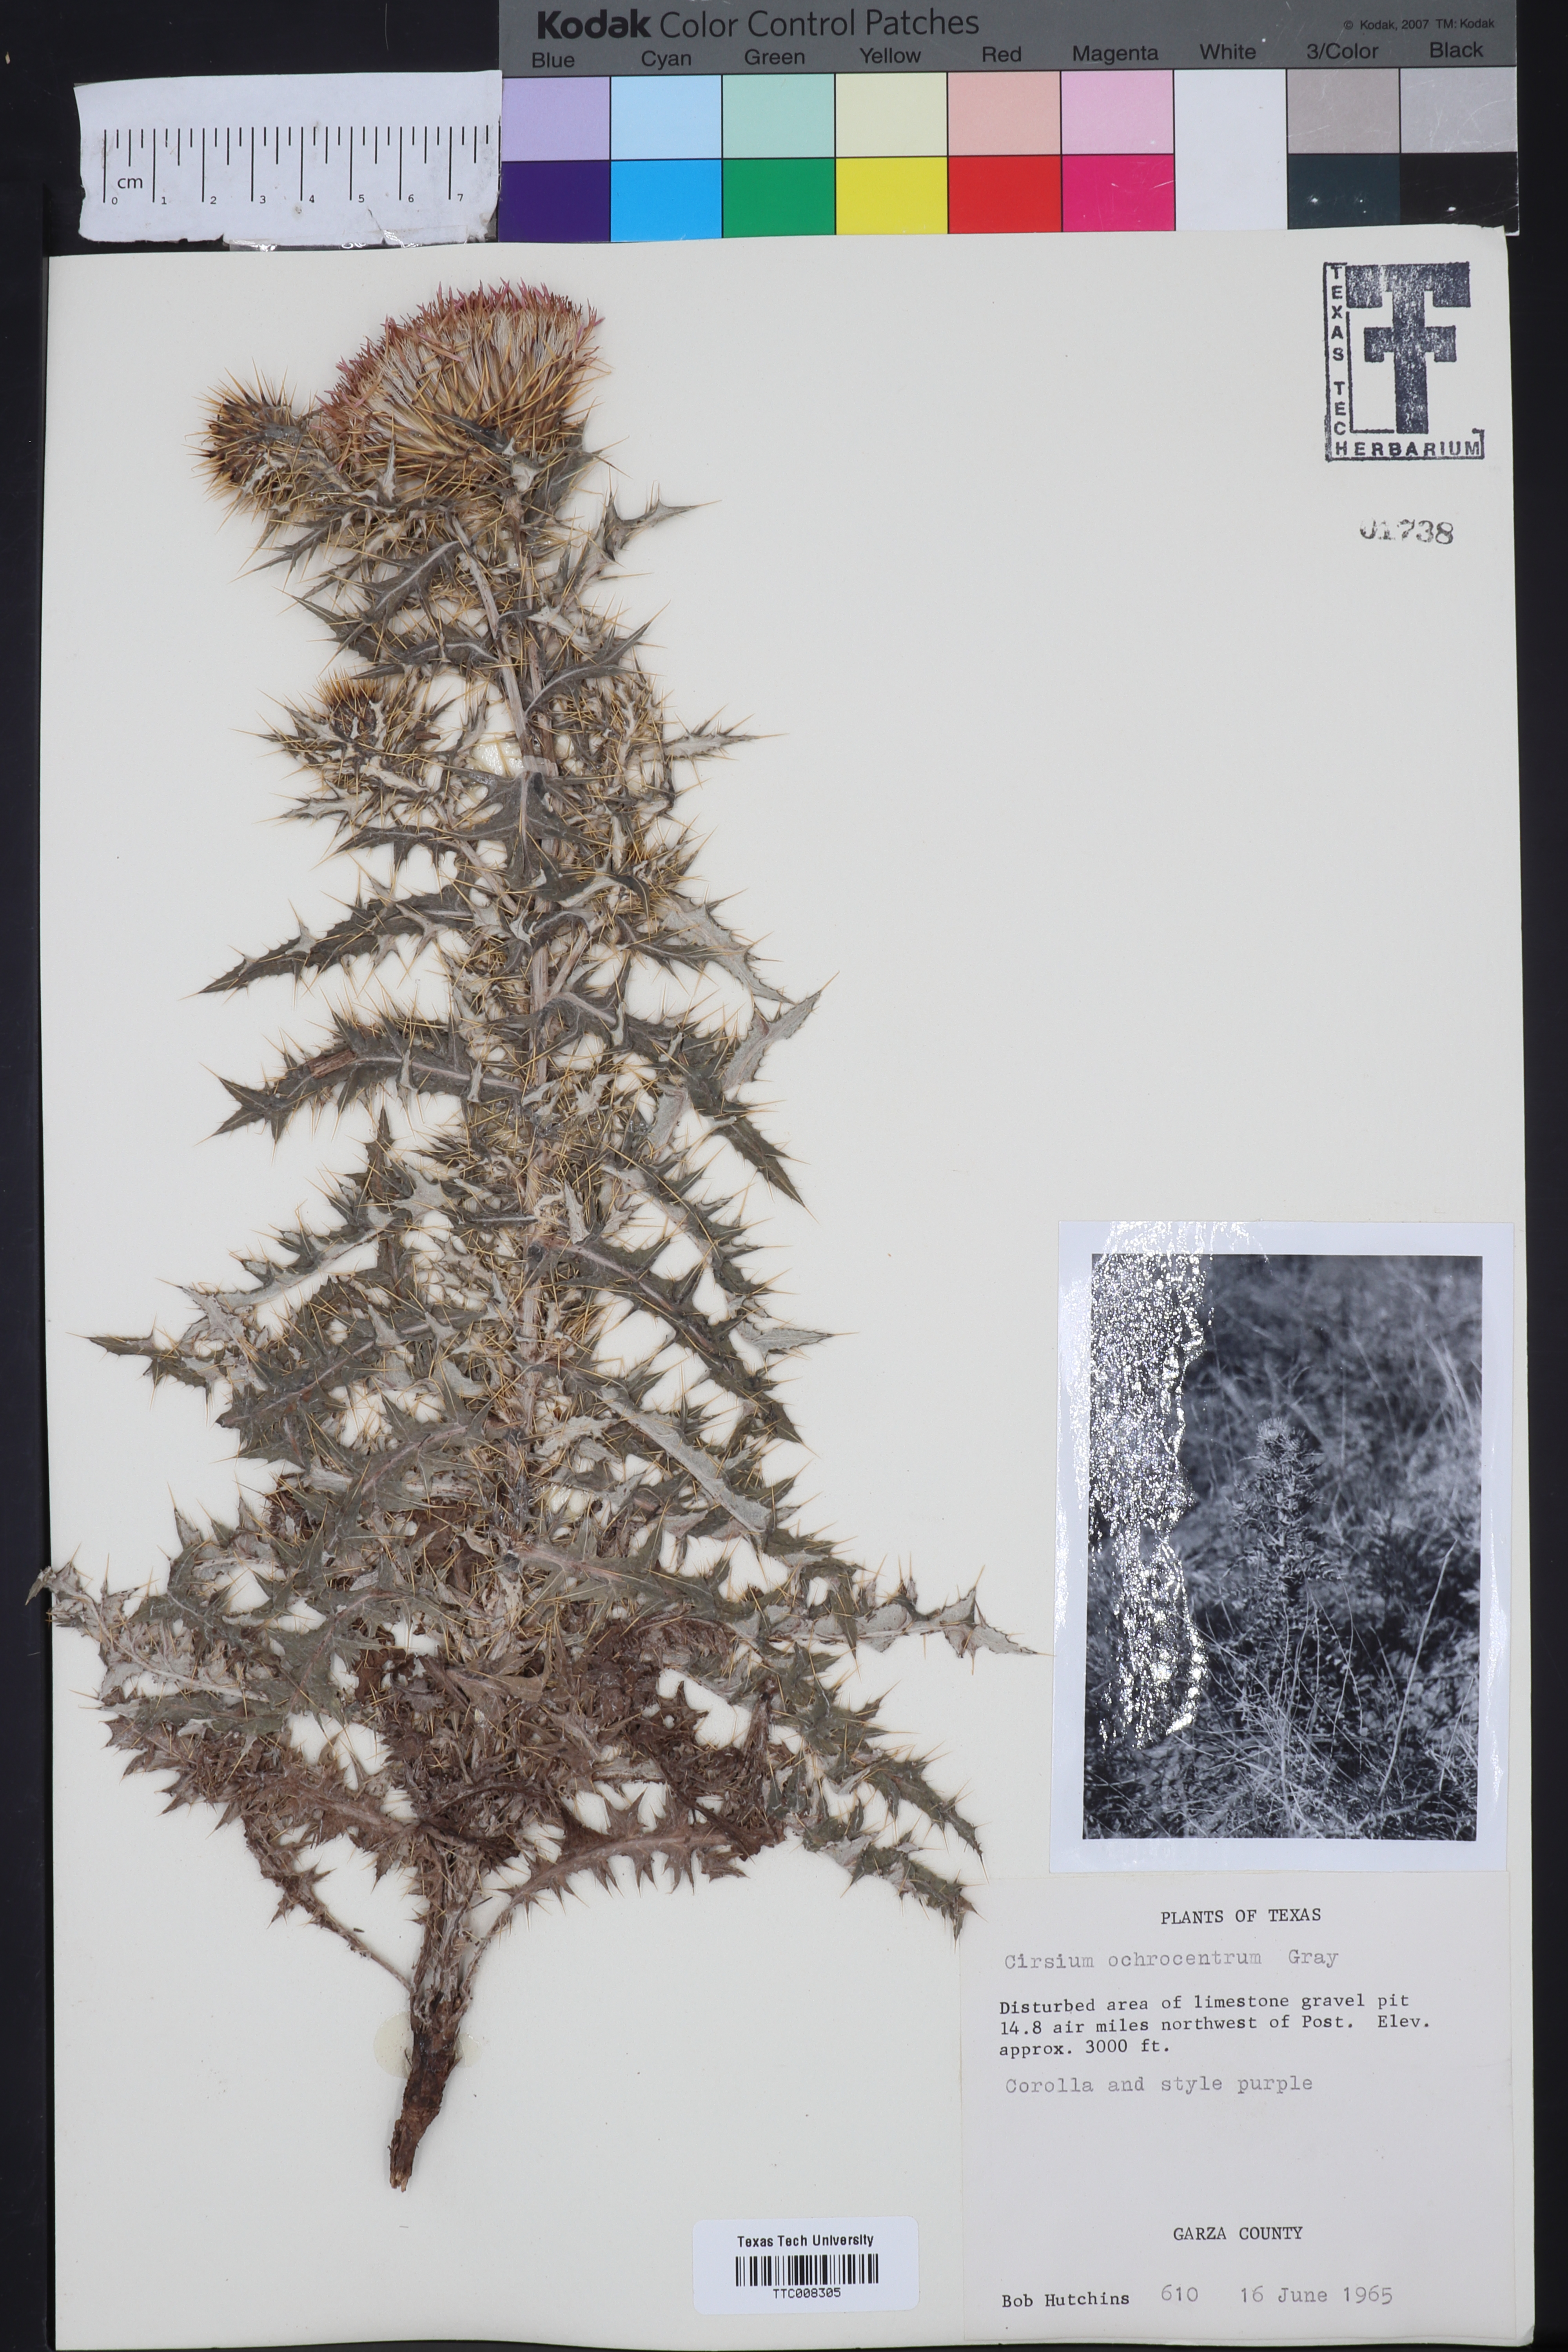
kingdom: Plantae
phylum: Tracheophyta
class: Magnoliopsida
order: Asterales
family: Asteraceae
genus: Cirsium
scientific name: Cirsium ochrocentrum
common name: Yellow-spine thistle
